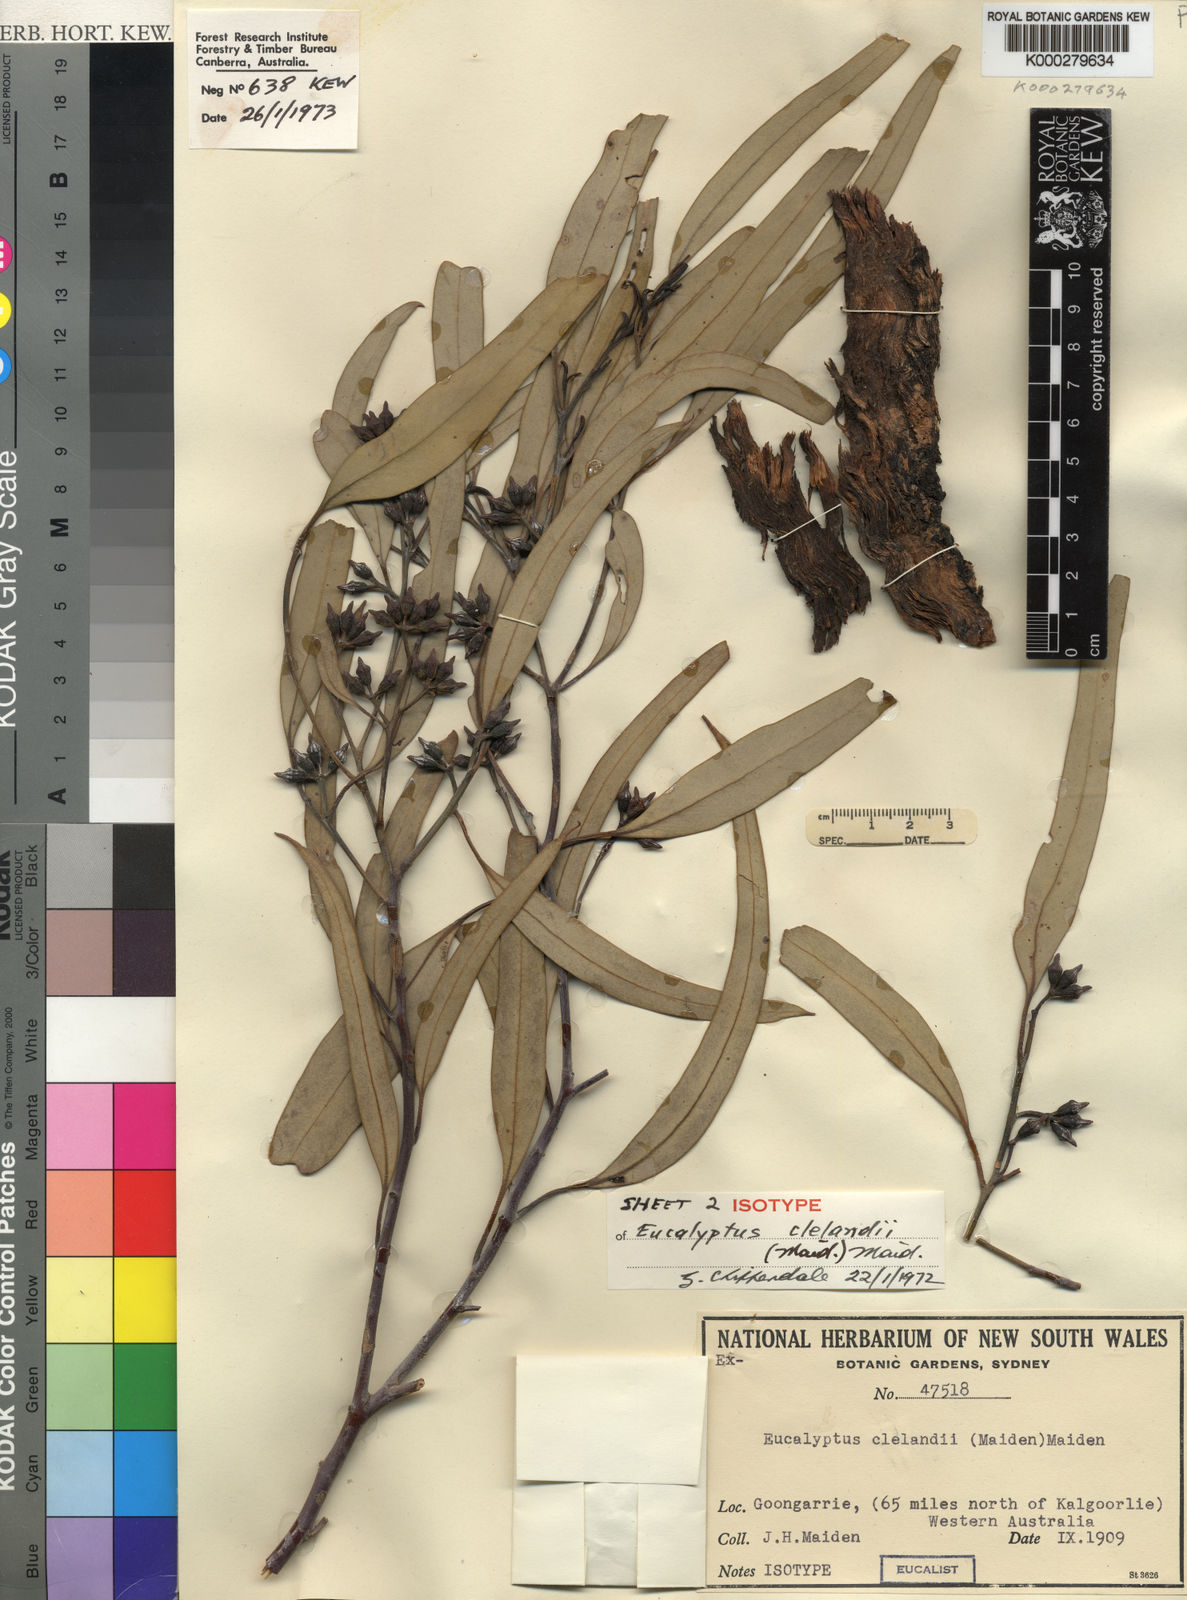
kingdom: Plantae
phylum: Tracheophyta
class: Magnoliopsida
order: Myrtales
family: Myrtaceae
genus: Eucalyptus
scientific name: Eucalyptus clelandiorum
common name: Cleland's blackbutt
